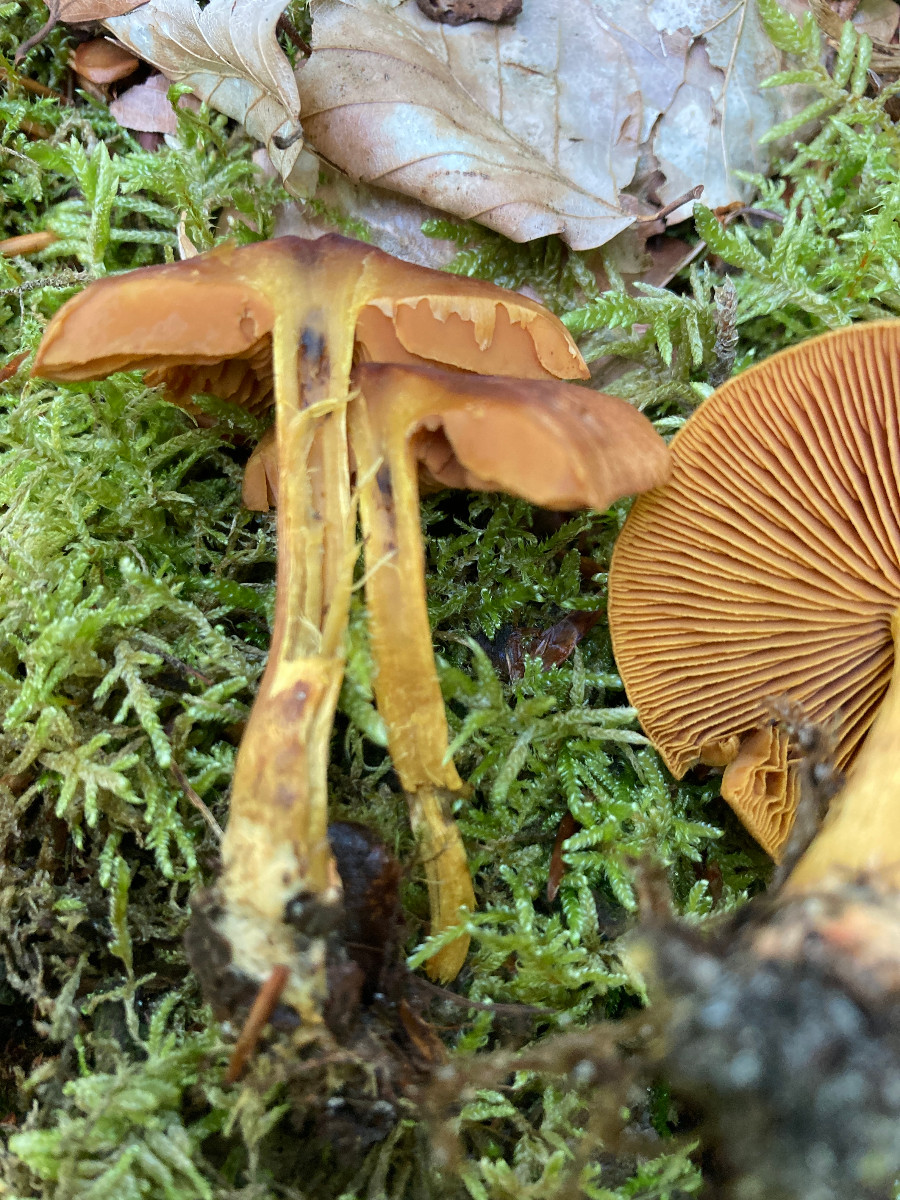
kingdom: Fungi
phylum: Basidiomycota
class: Agaricomycetes
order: Agaricales
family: Cortinariaceae
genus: Cortinarius
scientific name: Cortinarius
